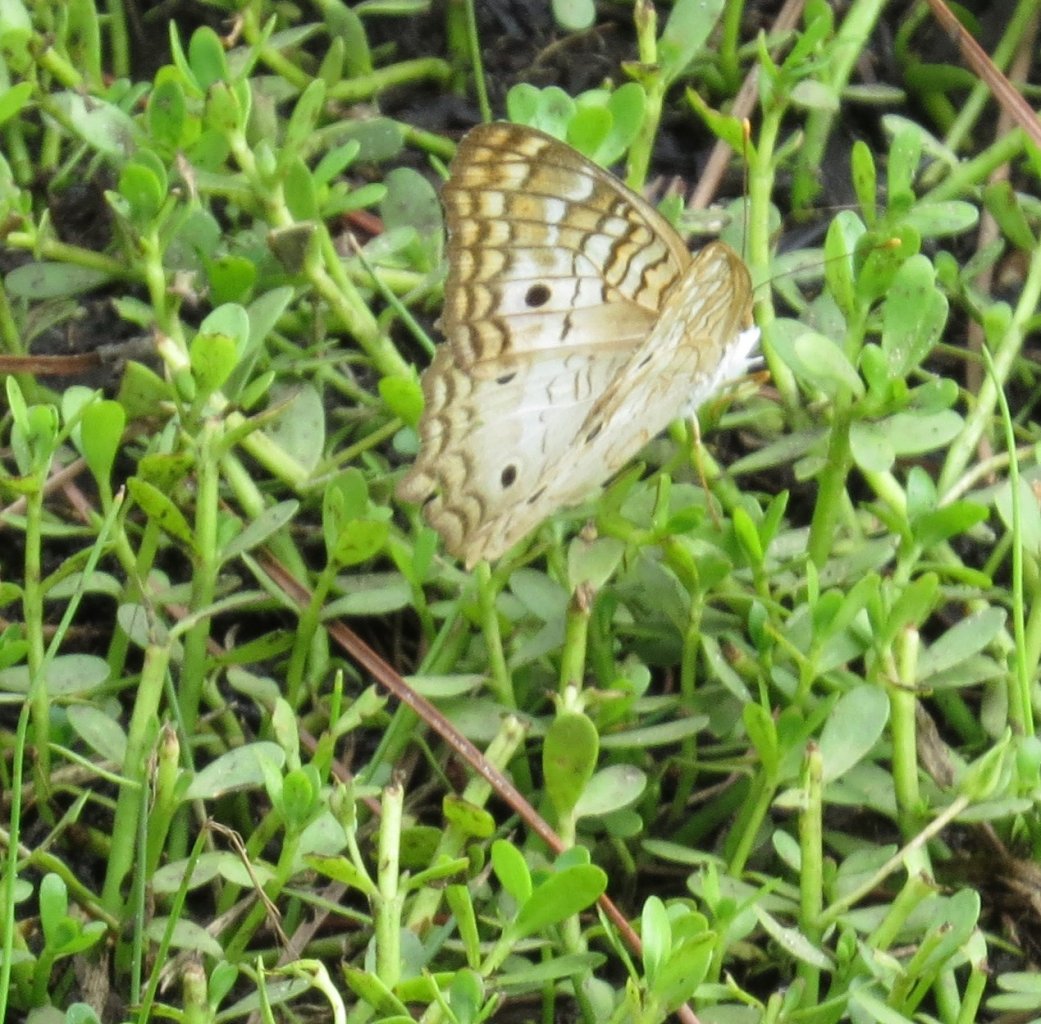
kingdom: Animalia
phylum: Arthropoda
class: Insecta
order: Lepidoptera
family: Nymphalidae
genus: Anartia
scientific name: Anartia jatrophae
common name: White Peacock
